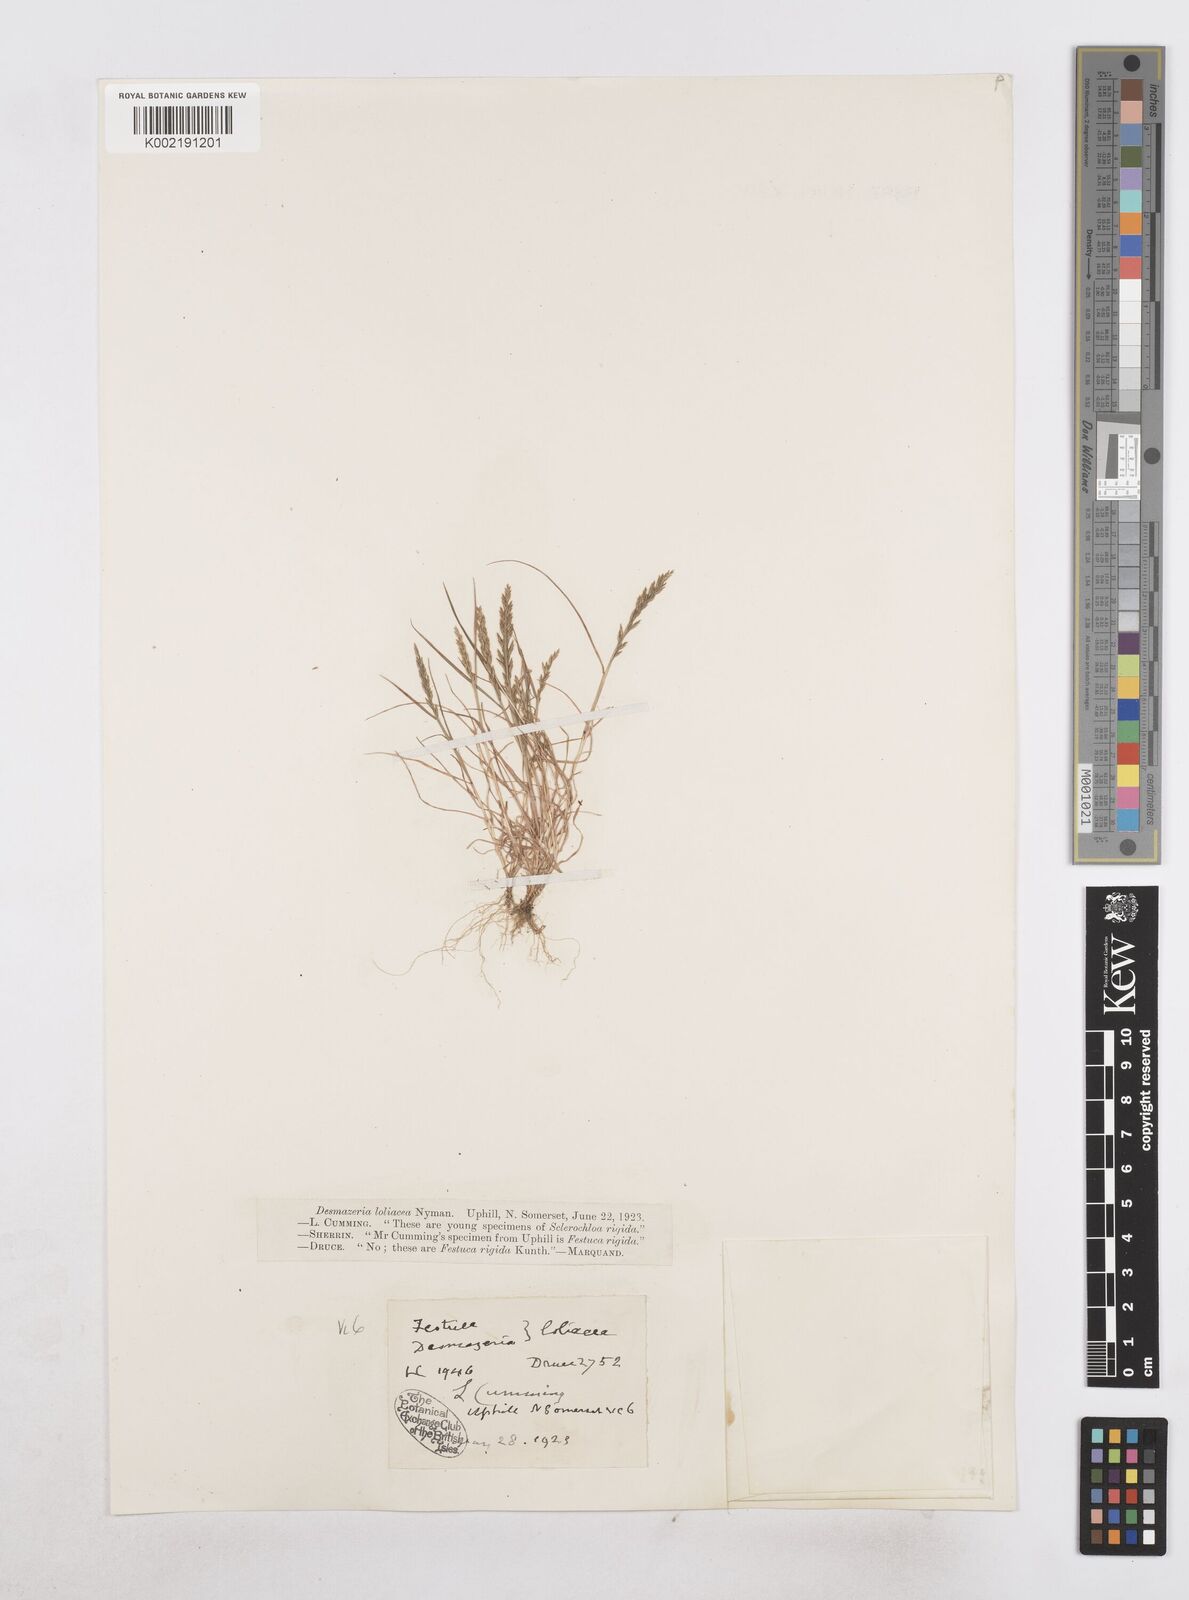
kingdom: Plantae
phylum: Tracheophyta
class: Liliopsida
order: Poales
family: Poaceae
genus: Catapodium
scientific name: Catapodium rigidum
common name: Fern-grass
